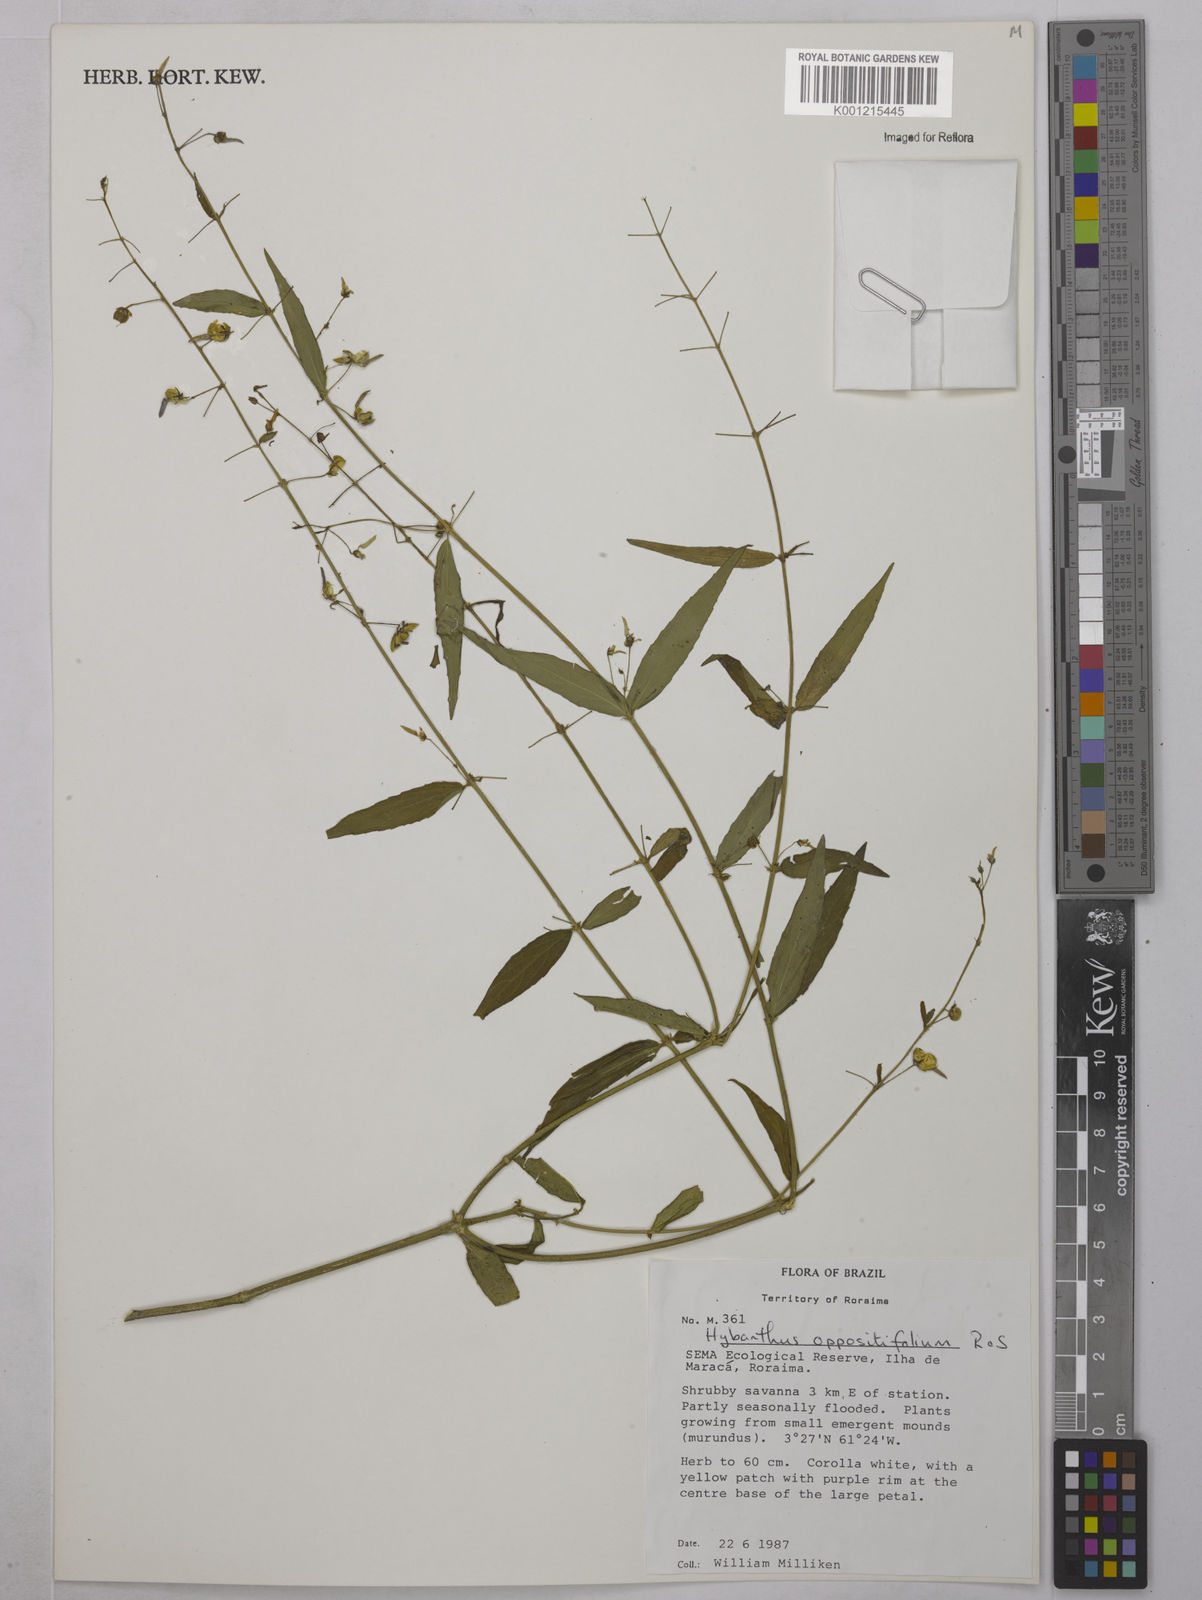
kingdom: Plantae
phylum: Tracheophyta
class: Magnoliopsida
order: Malpighiales
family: Violaceae
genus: Hybanthus
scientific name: Hybanthus
